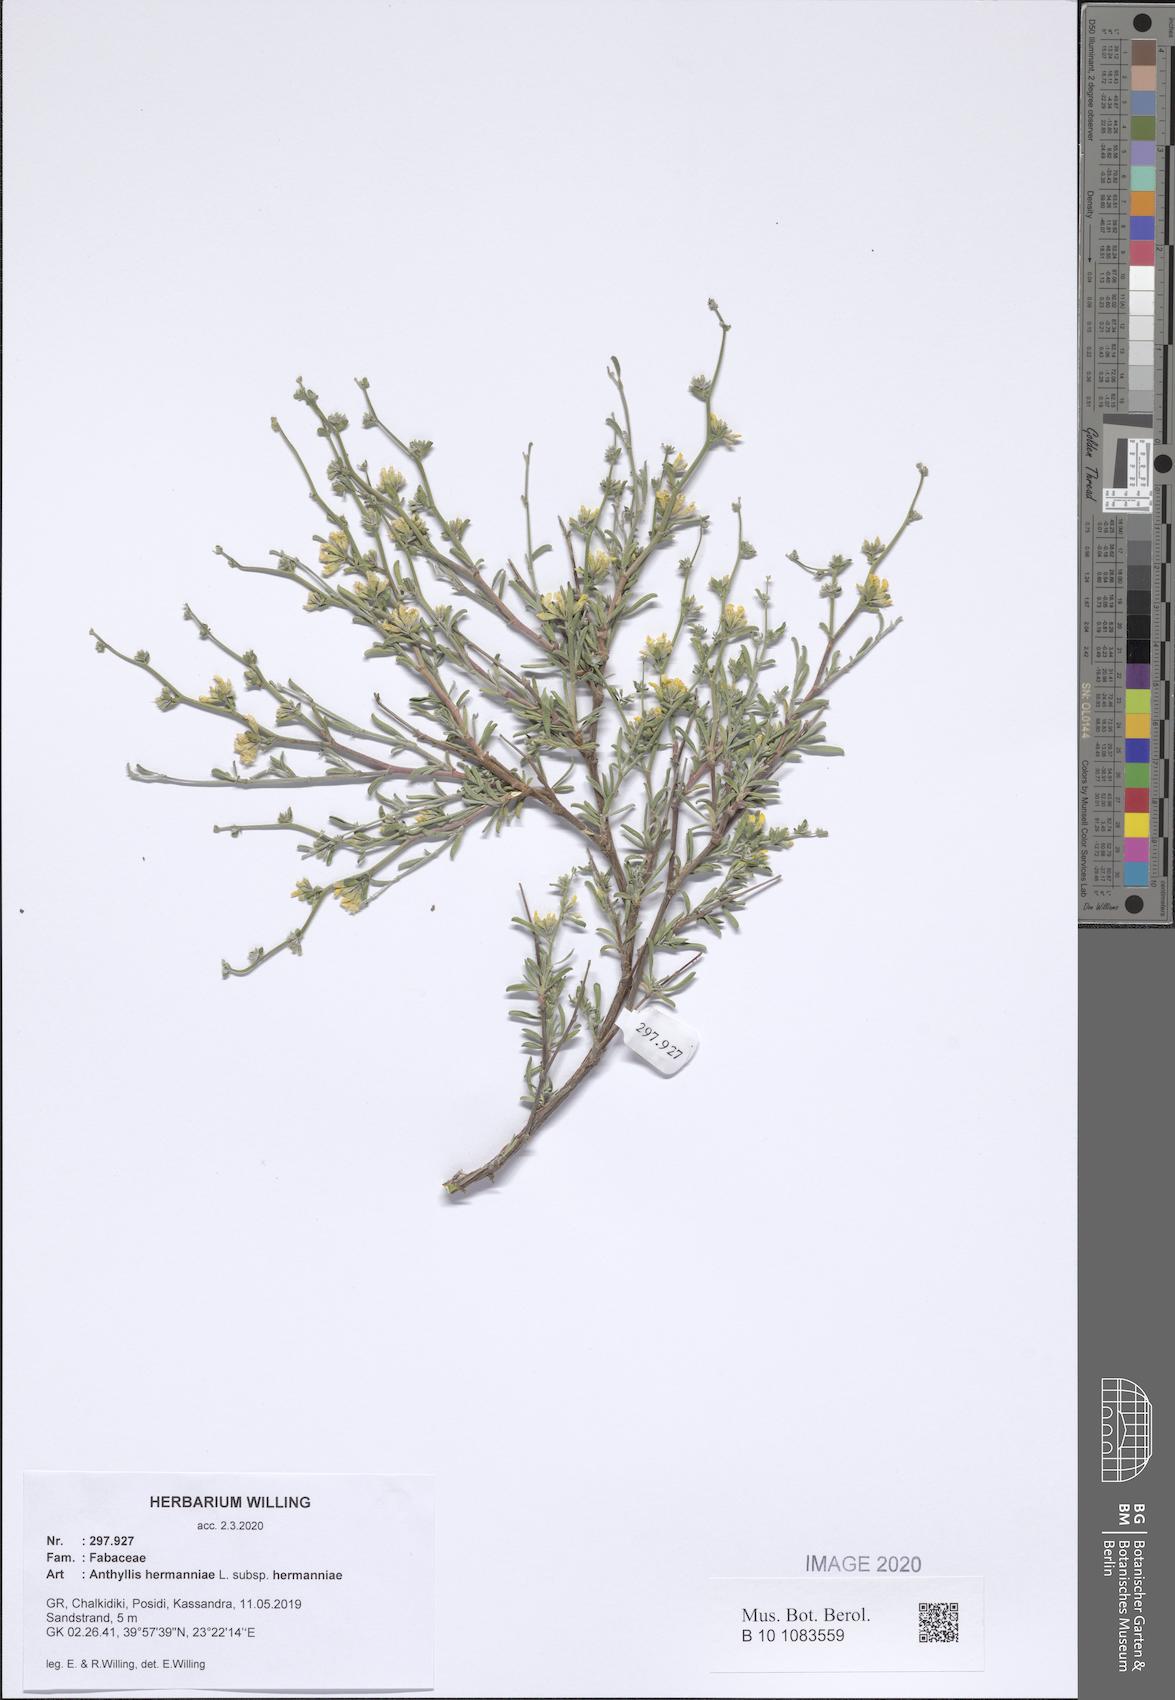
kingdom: Plantae
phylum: Tracheophyta
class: Magnoliopsida
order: Fabales
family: Fabaceae
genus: Anthyllis
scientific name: Anthyllis hermanniae
